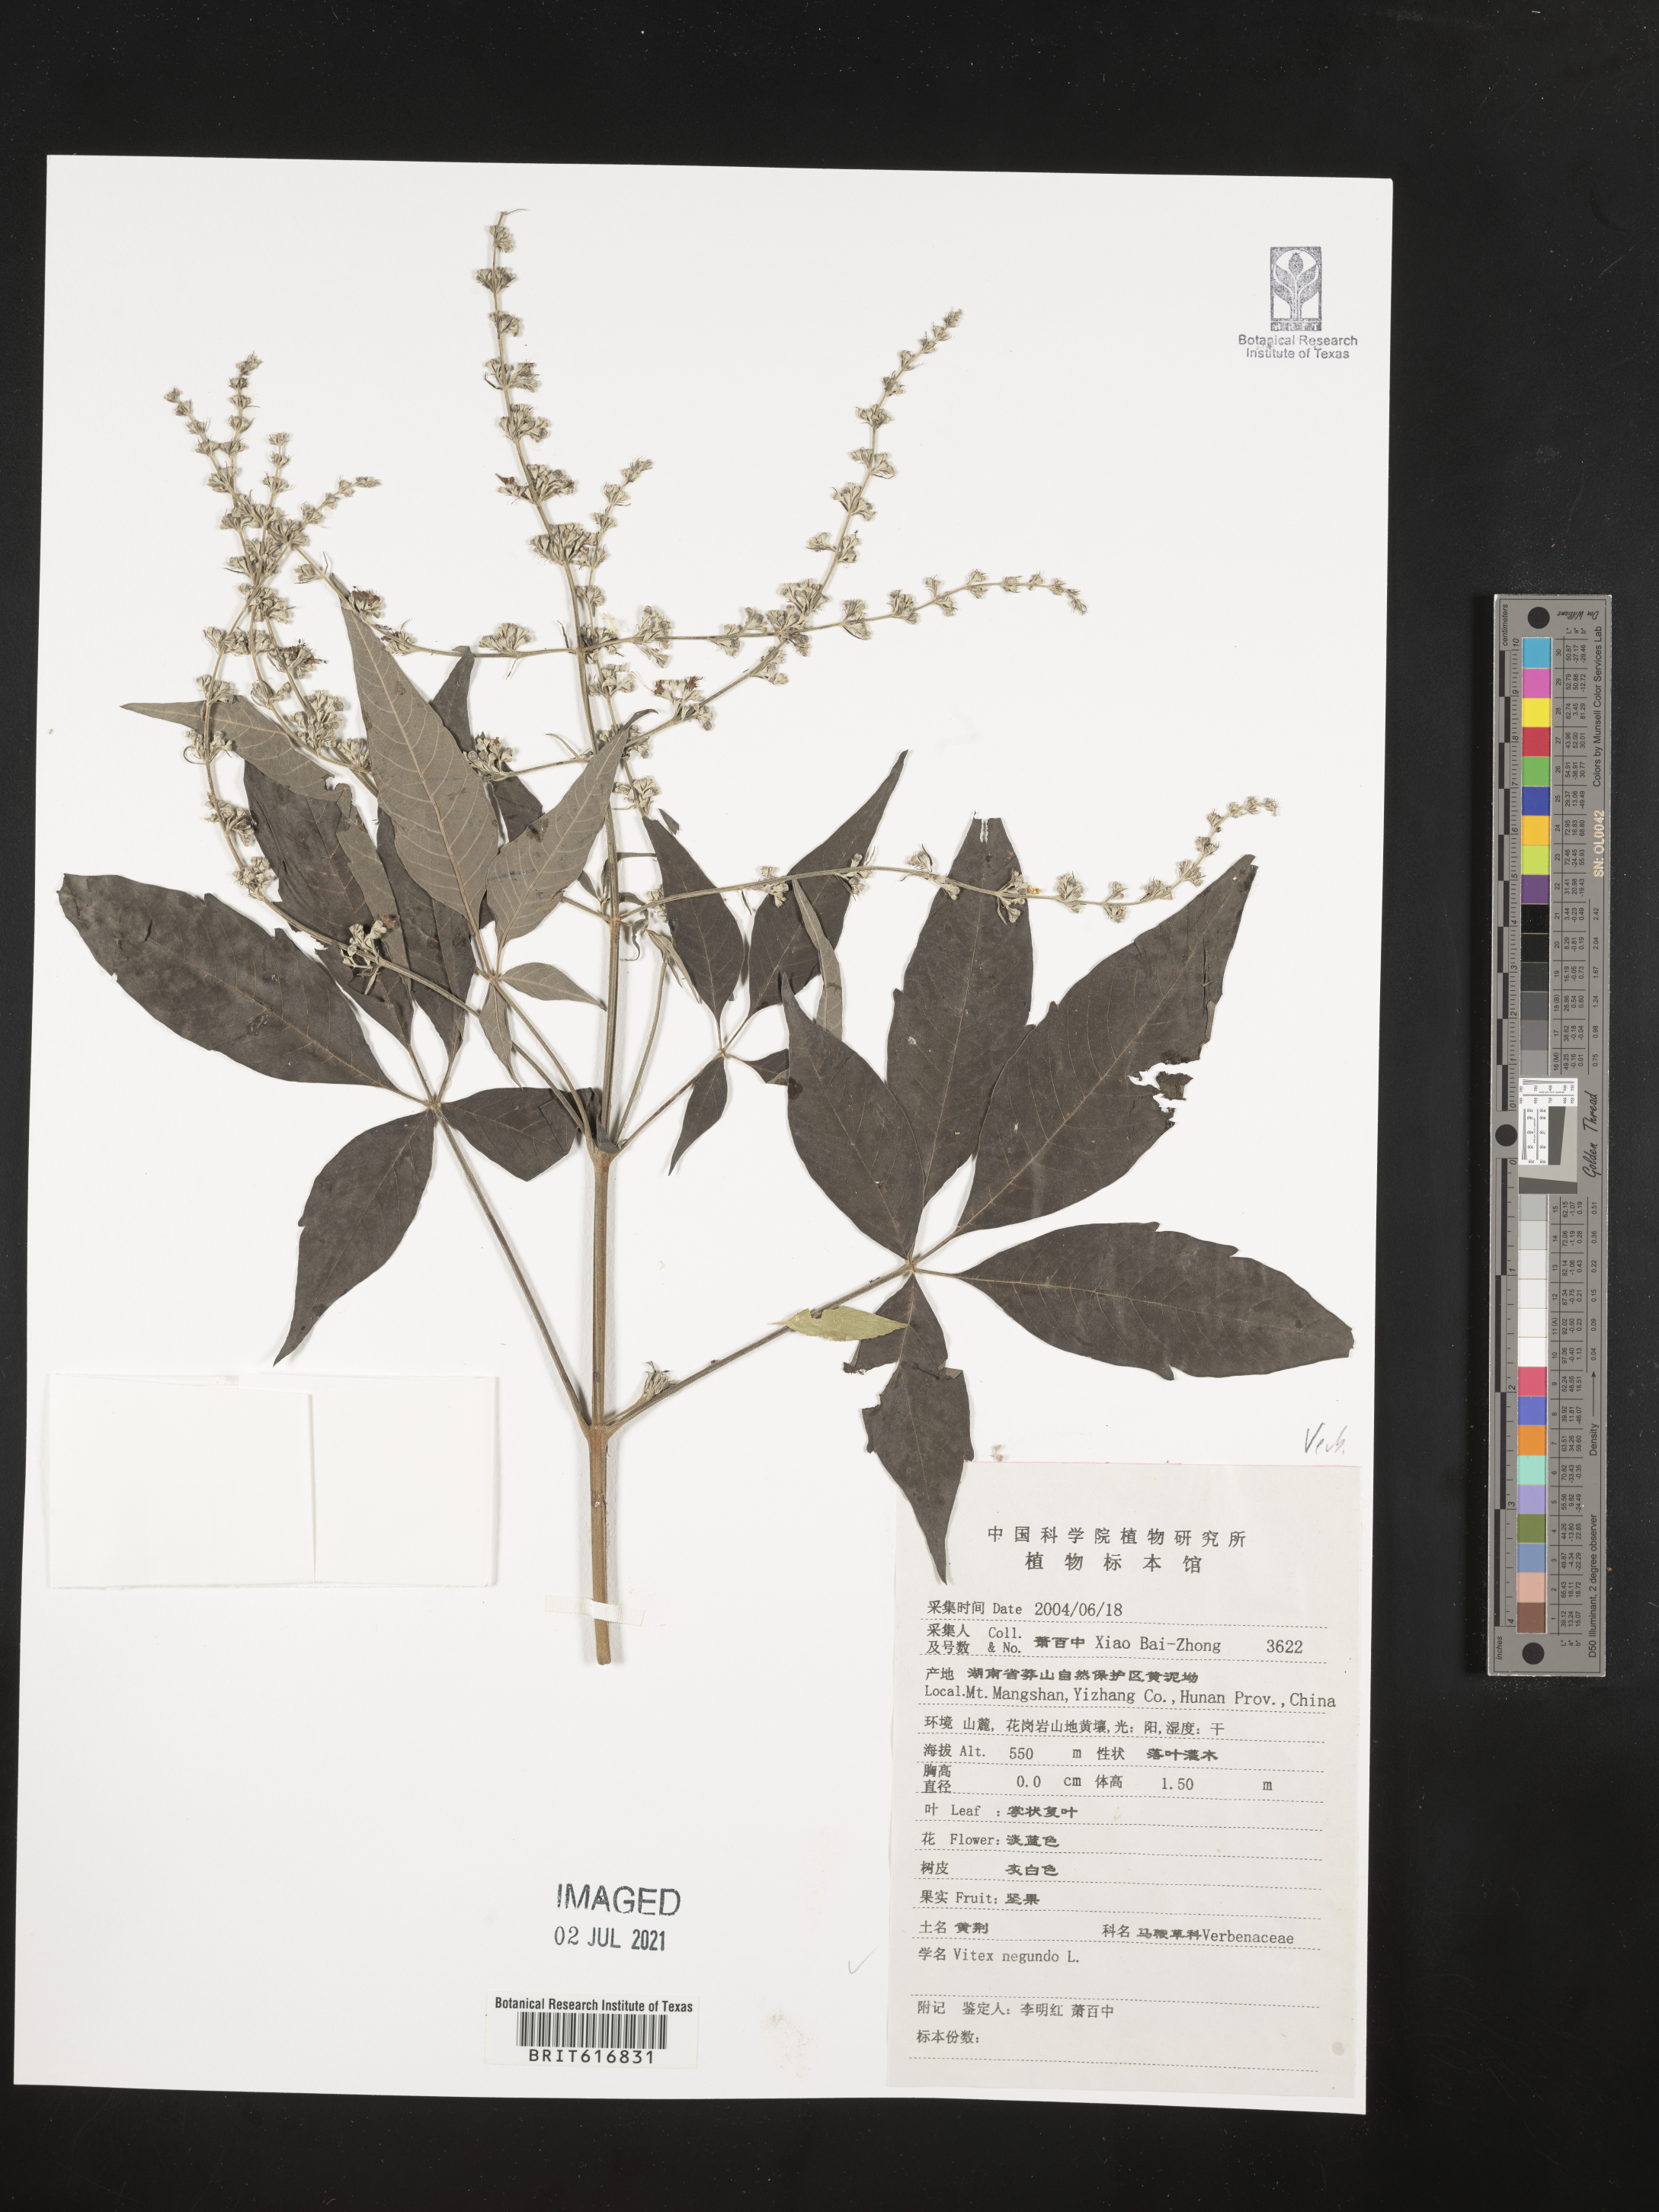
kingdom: Plantae
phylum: Tracheophyta
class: Magnoliopsida
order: Lamiales
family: Lamiaceae
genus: Vitex
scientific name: Vitex negundo
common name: Chinese chastetree
